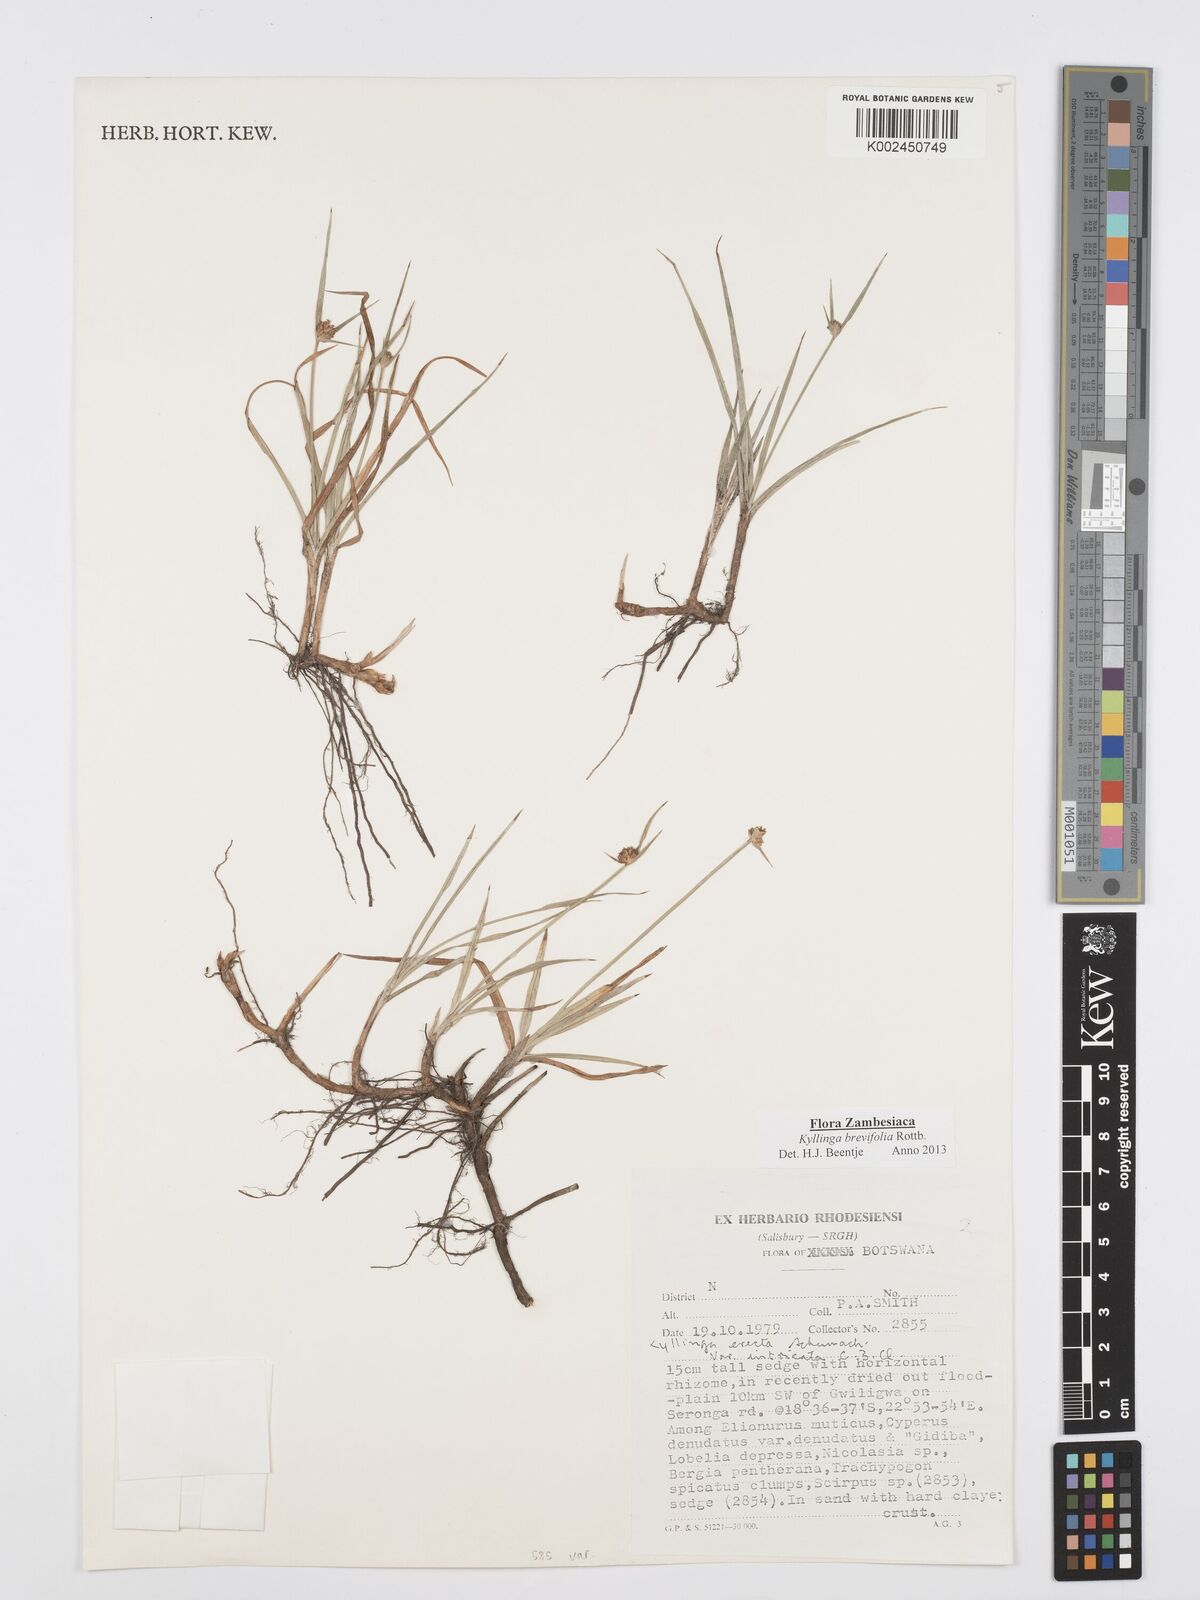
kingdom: Plantae
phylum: Tracheophyta
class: Liliopsida
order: Poales
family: Cyperaceae
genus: Cyperus
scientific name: Cyperus brevifolius
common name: Globe kyllinga
